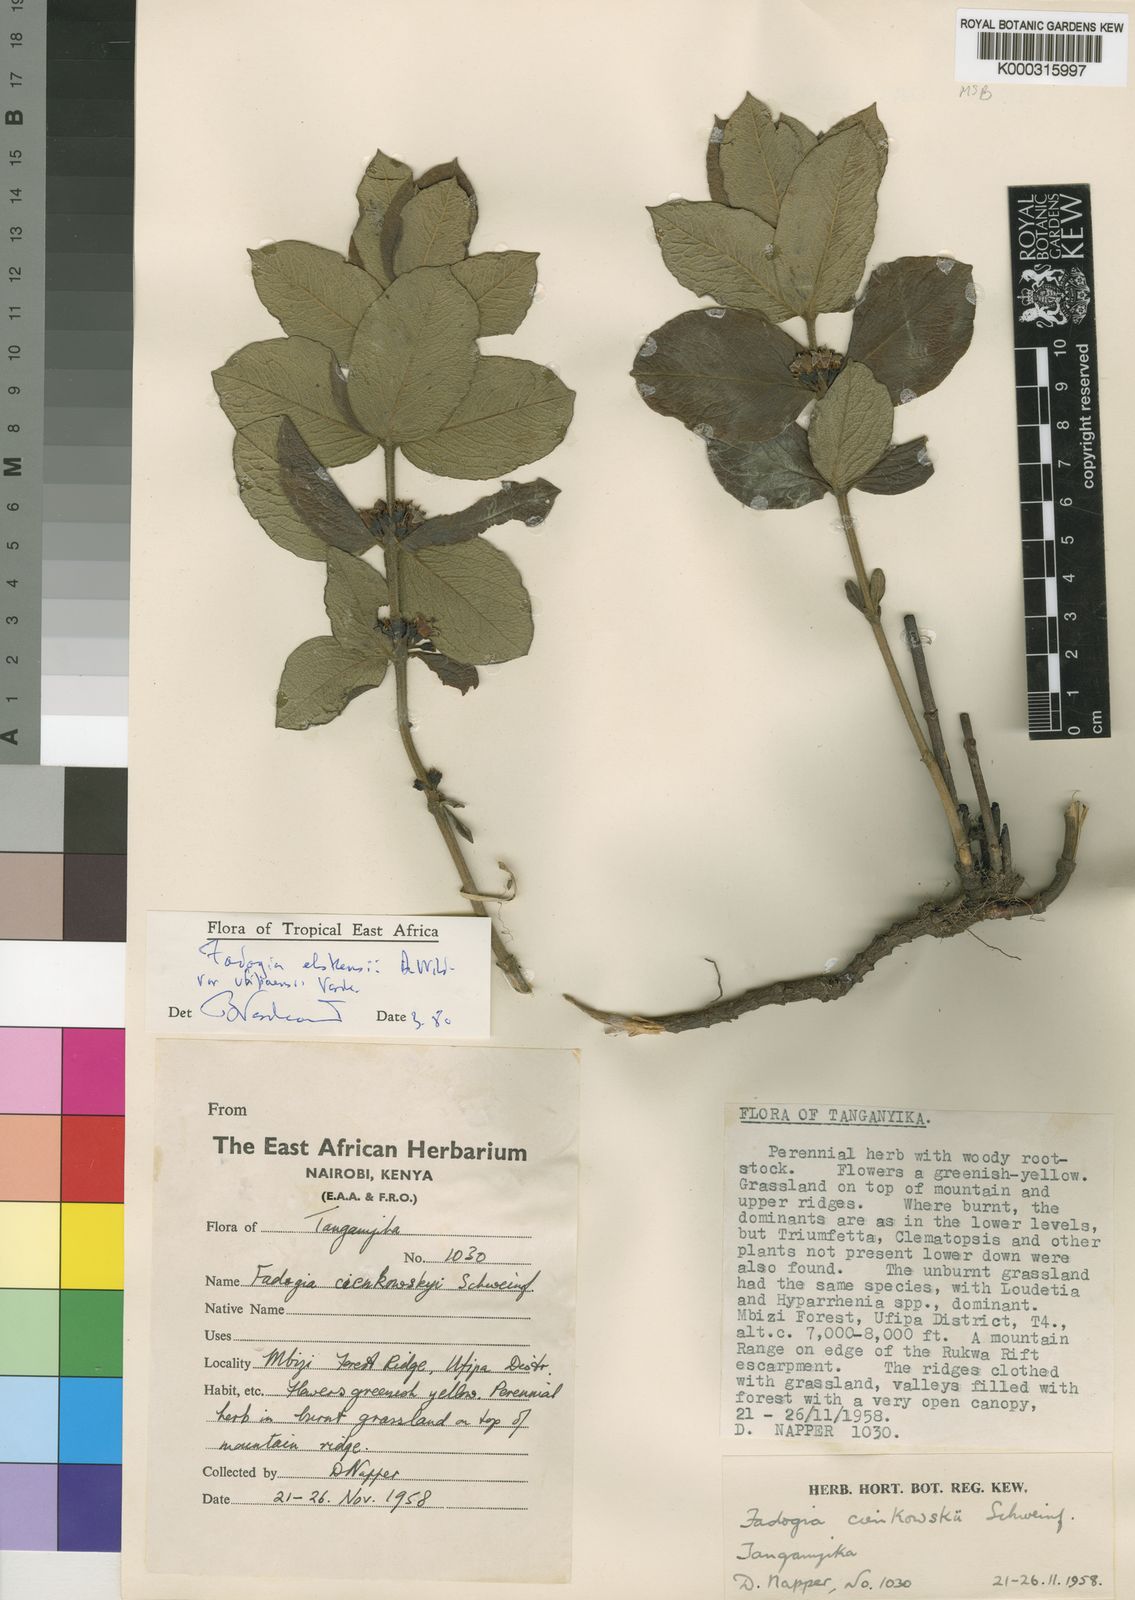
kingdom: Plantae
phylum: Tracheophyta
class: Magnoliopsida
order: Gentianales
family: Rubiaceae
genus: Fadogia
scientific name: Fadogia elskensii
